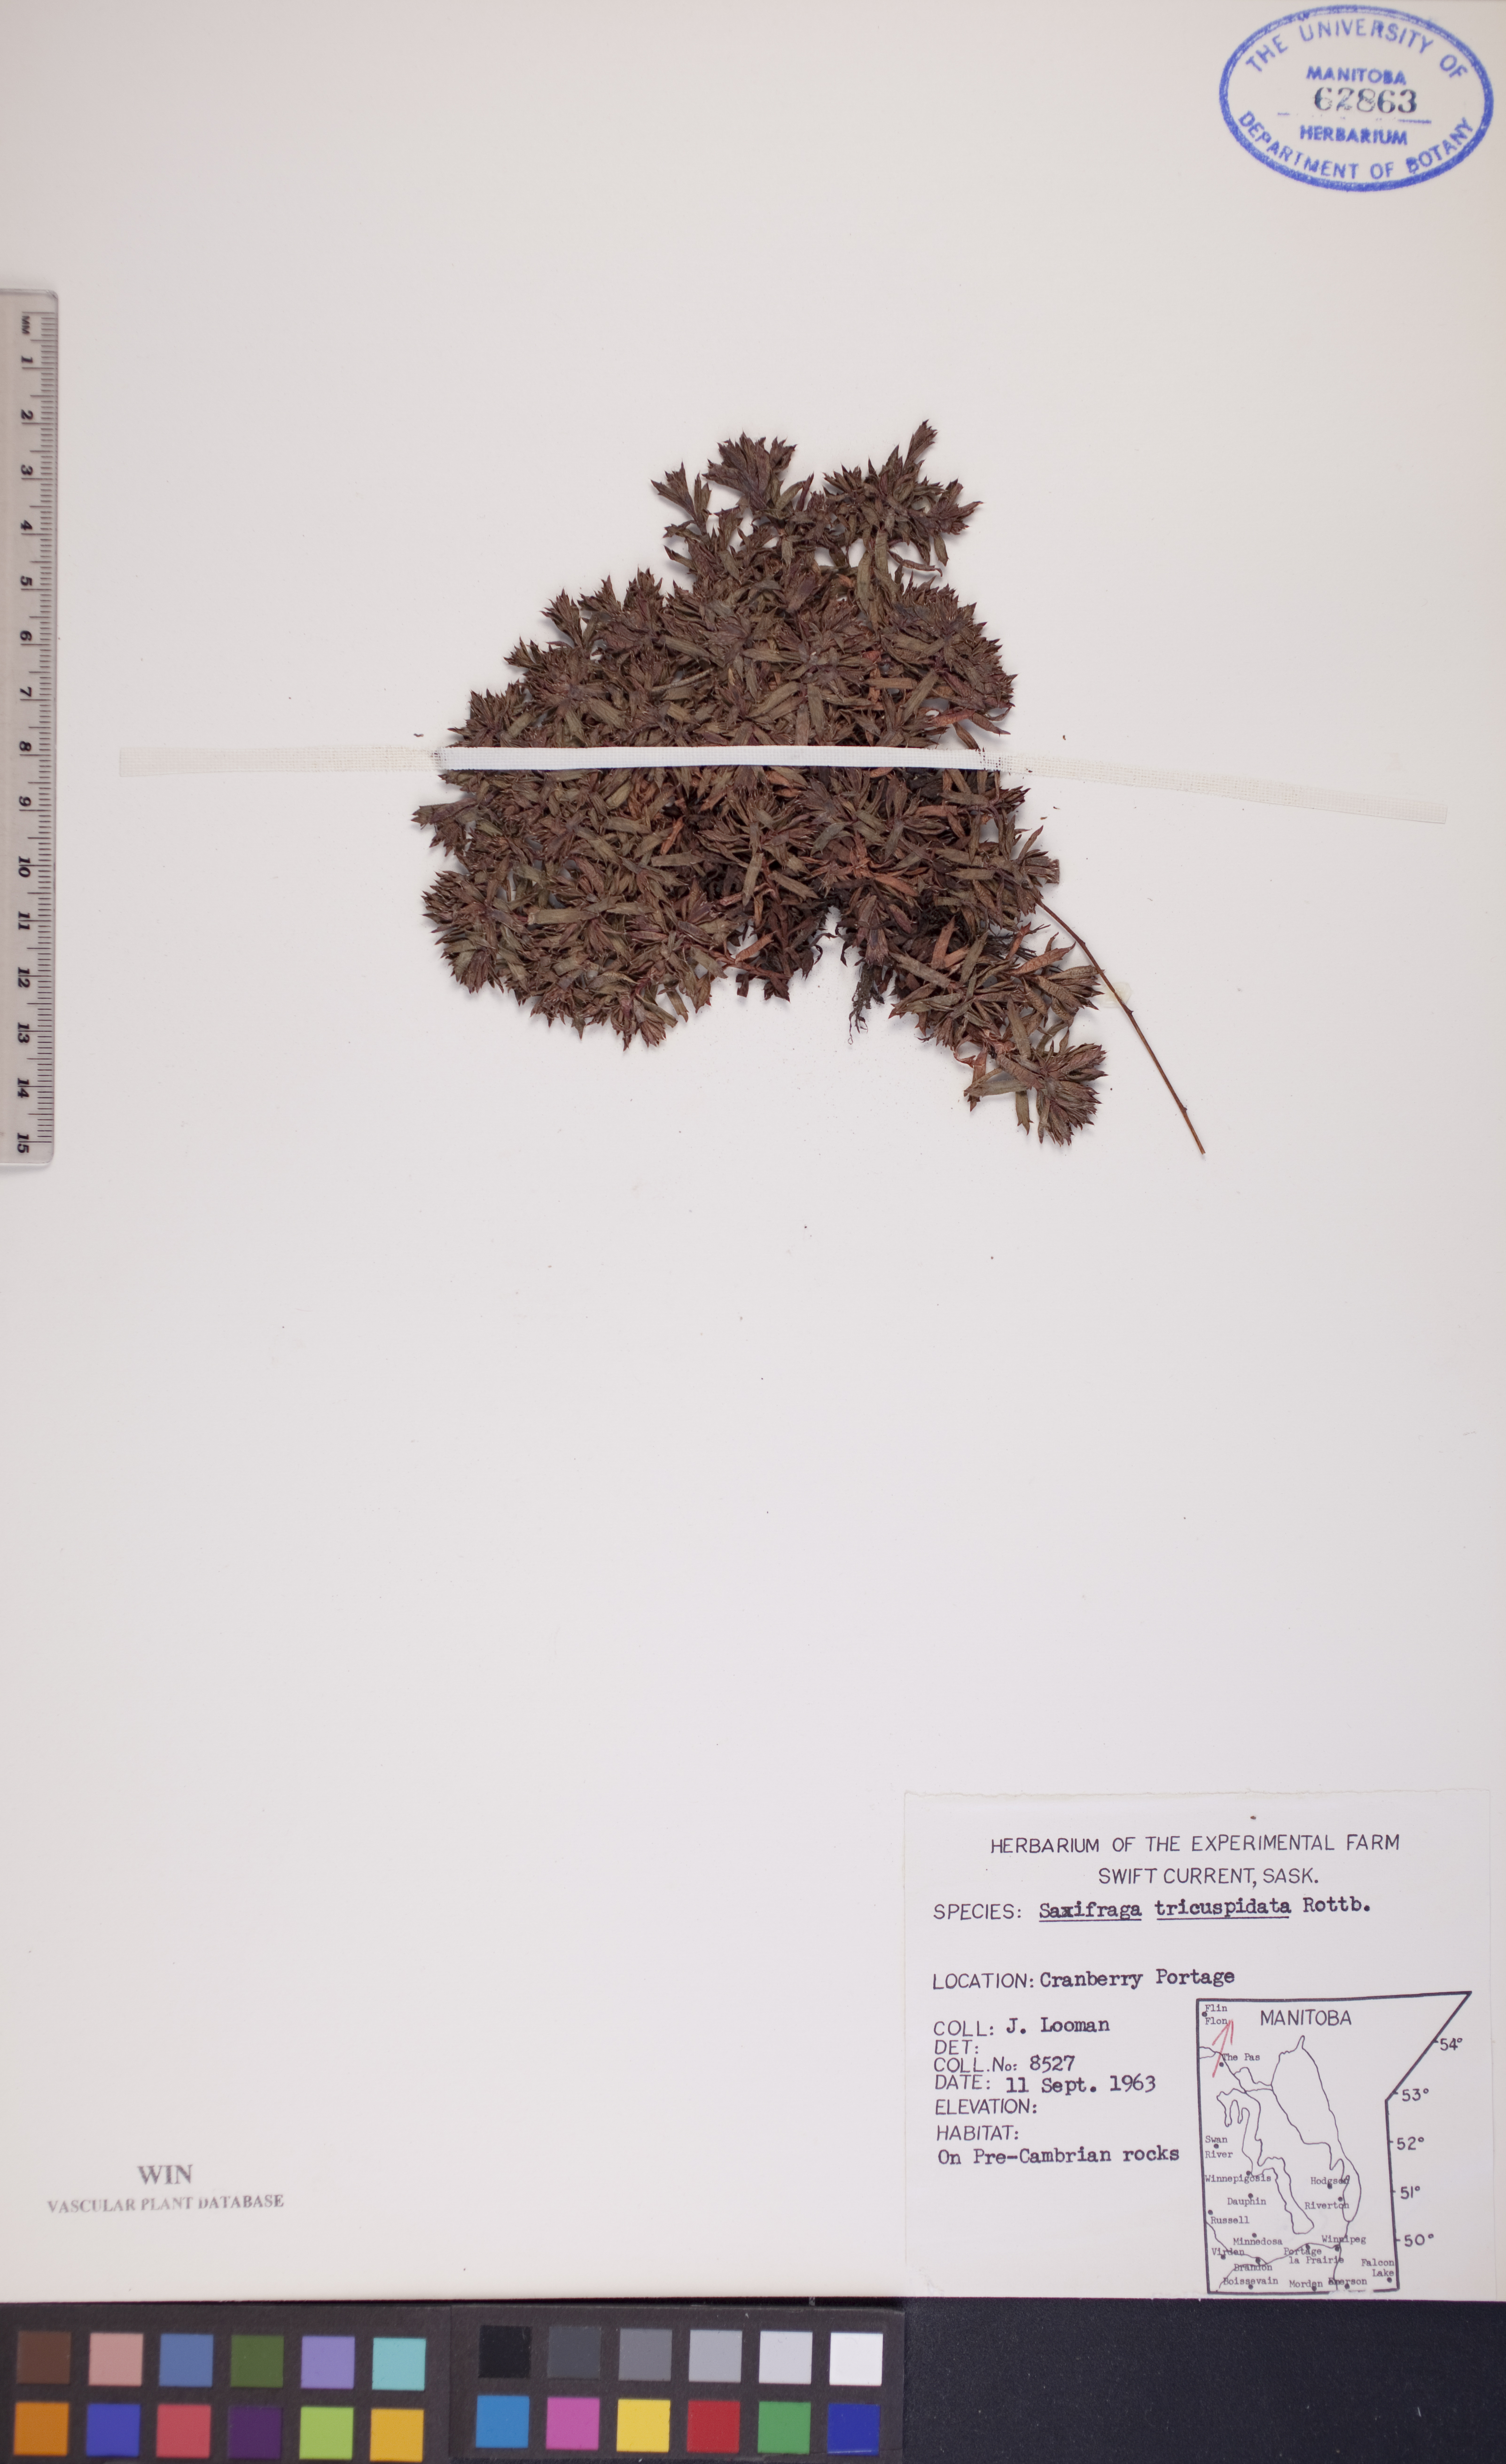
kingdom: Plantae
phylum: Tracheophyta
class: Magnoliopsida
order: Saxifragales
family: Saxifragaceae
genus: Saxifraga
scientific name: Saxifraga tricuspidata
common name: Prickly saxifrage
